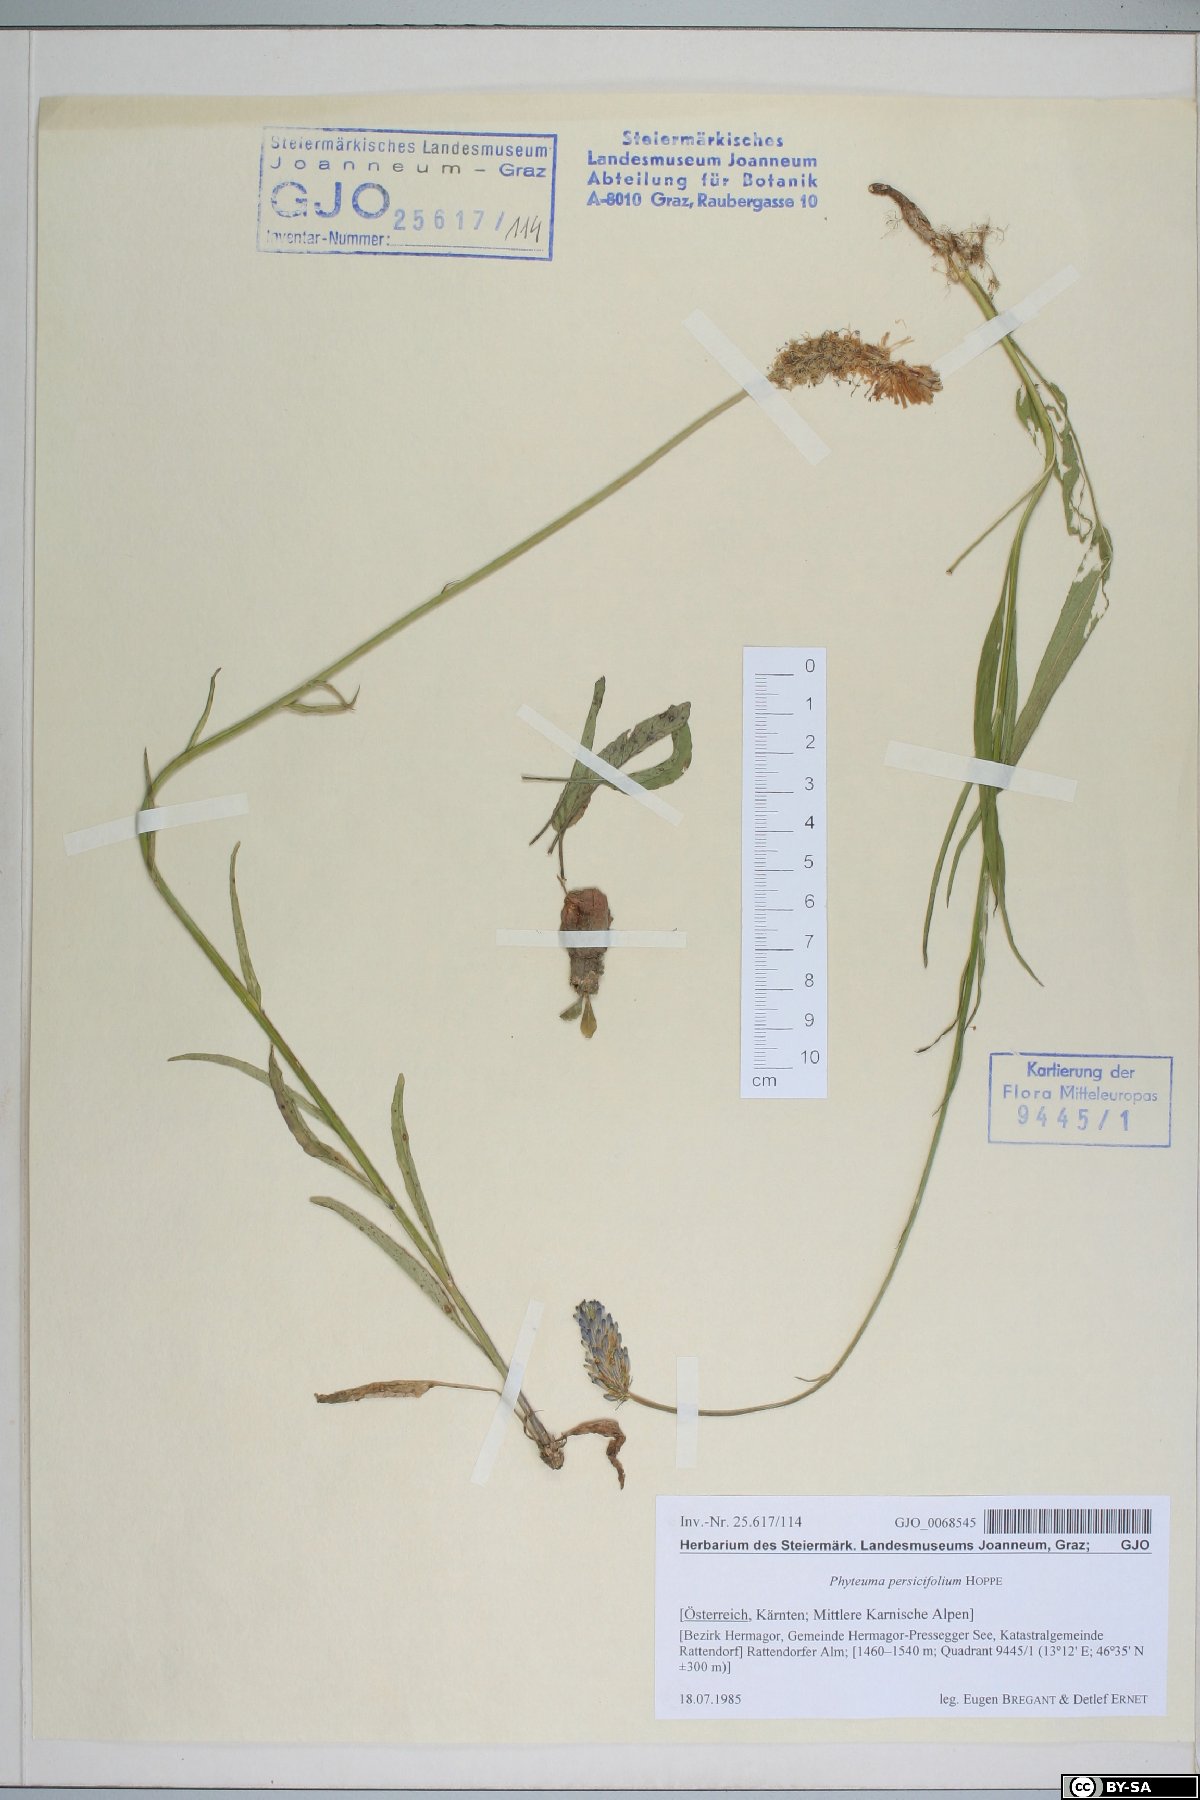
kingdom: Plantae
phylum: Tracheophyta
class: Magnoliopsida
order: Asterales
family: Campanulaceae
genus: Phyteuma
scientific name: Phyteuma persicifolium
